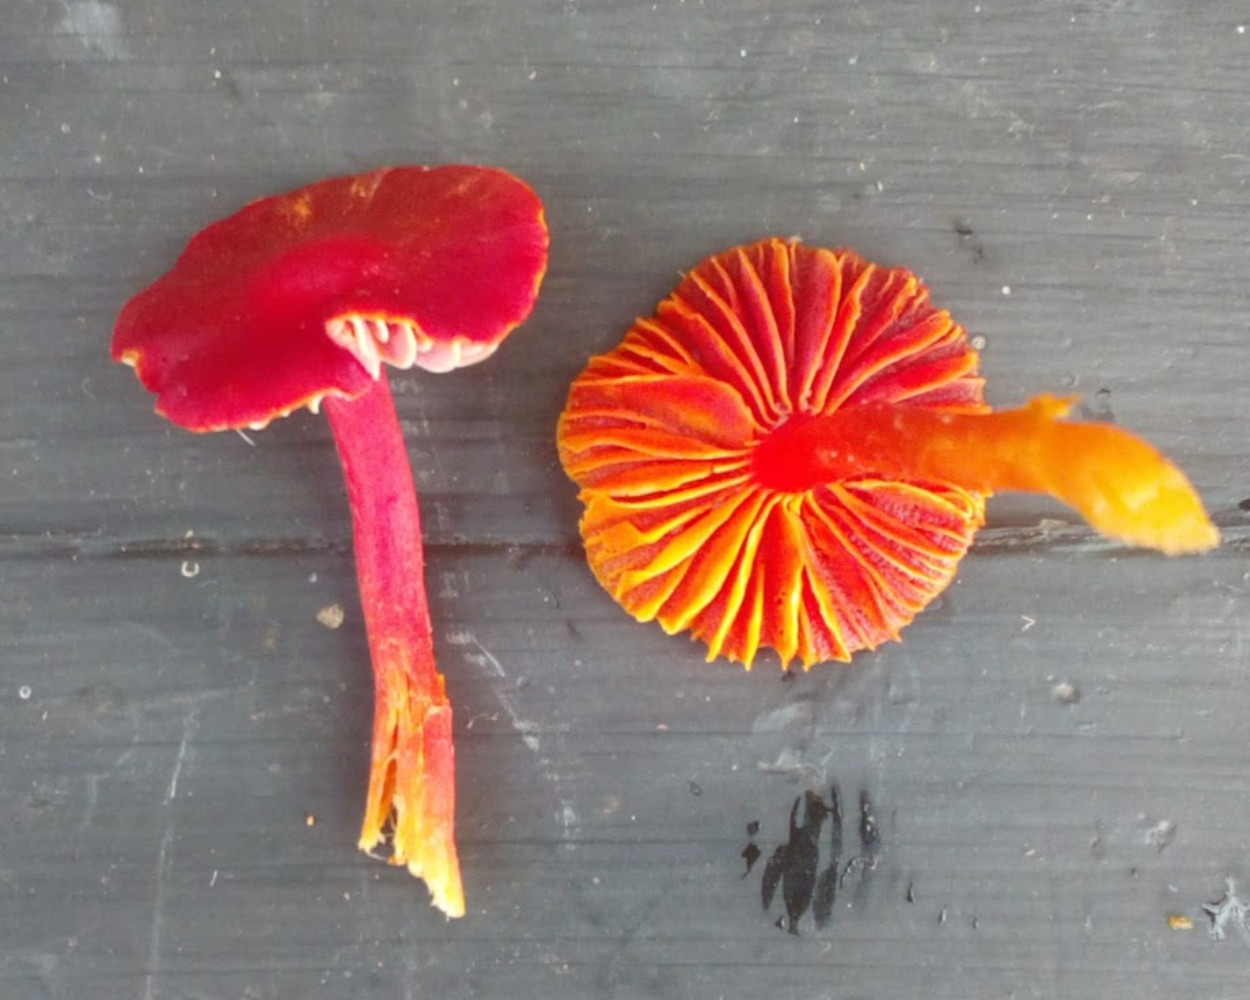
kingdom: Fungi
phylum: Basidiomycota
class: Agaricomycetes
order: Agaricales
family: Hygrophoraceae
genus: Hygrocybe
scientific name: Hygrocybe coccinea
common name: cinnober-vokshat
